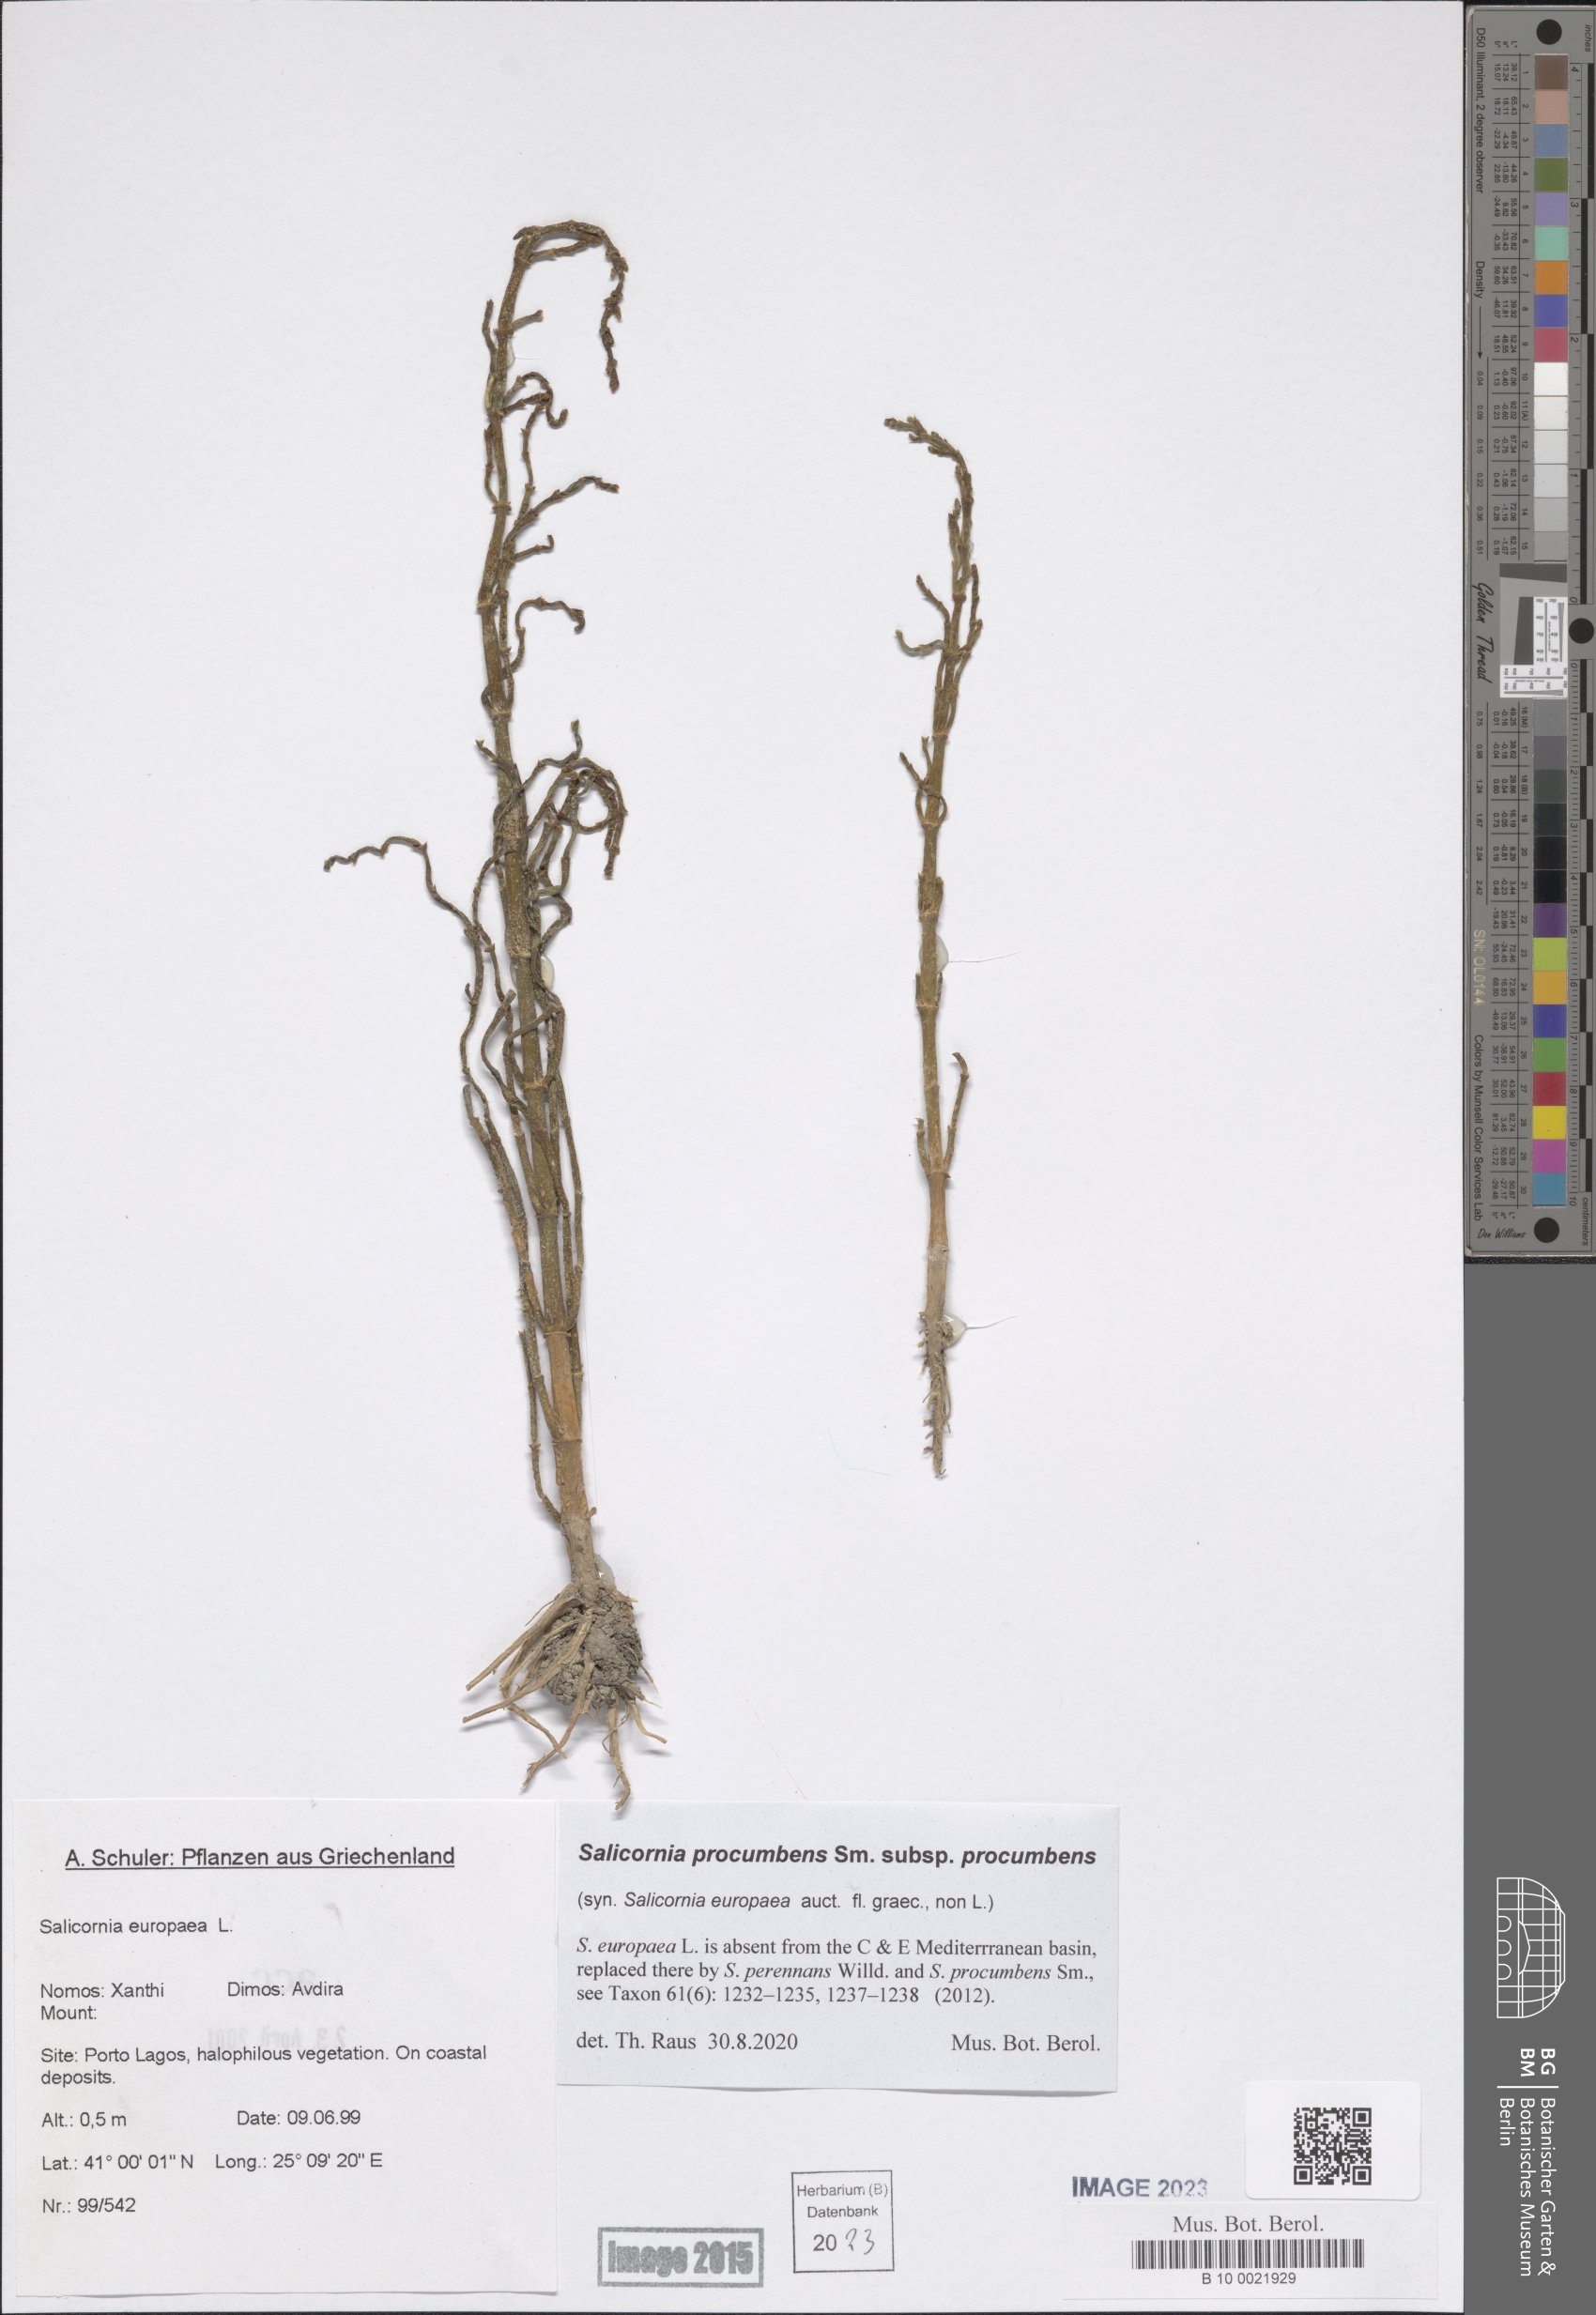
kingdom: Plantae
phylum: Tracheophyta
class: Magnoliopsida
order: Caryophyllales
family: Amaranthaceae
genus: Salicornia
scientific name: Salicornia procumbens
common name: Long-spiked glasswort
